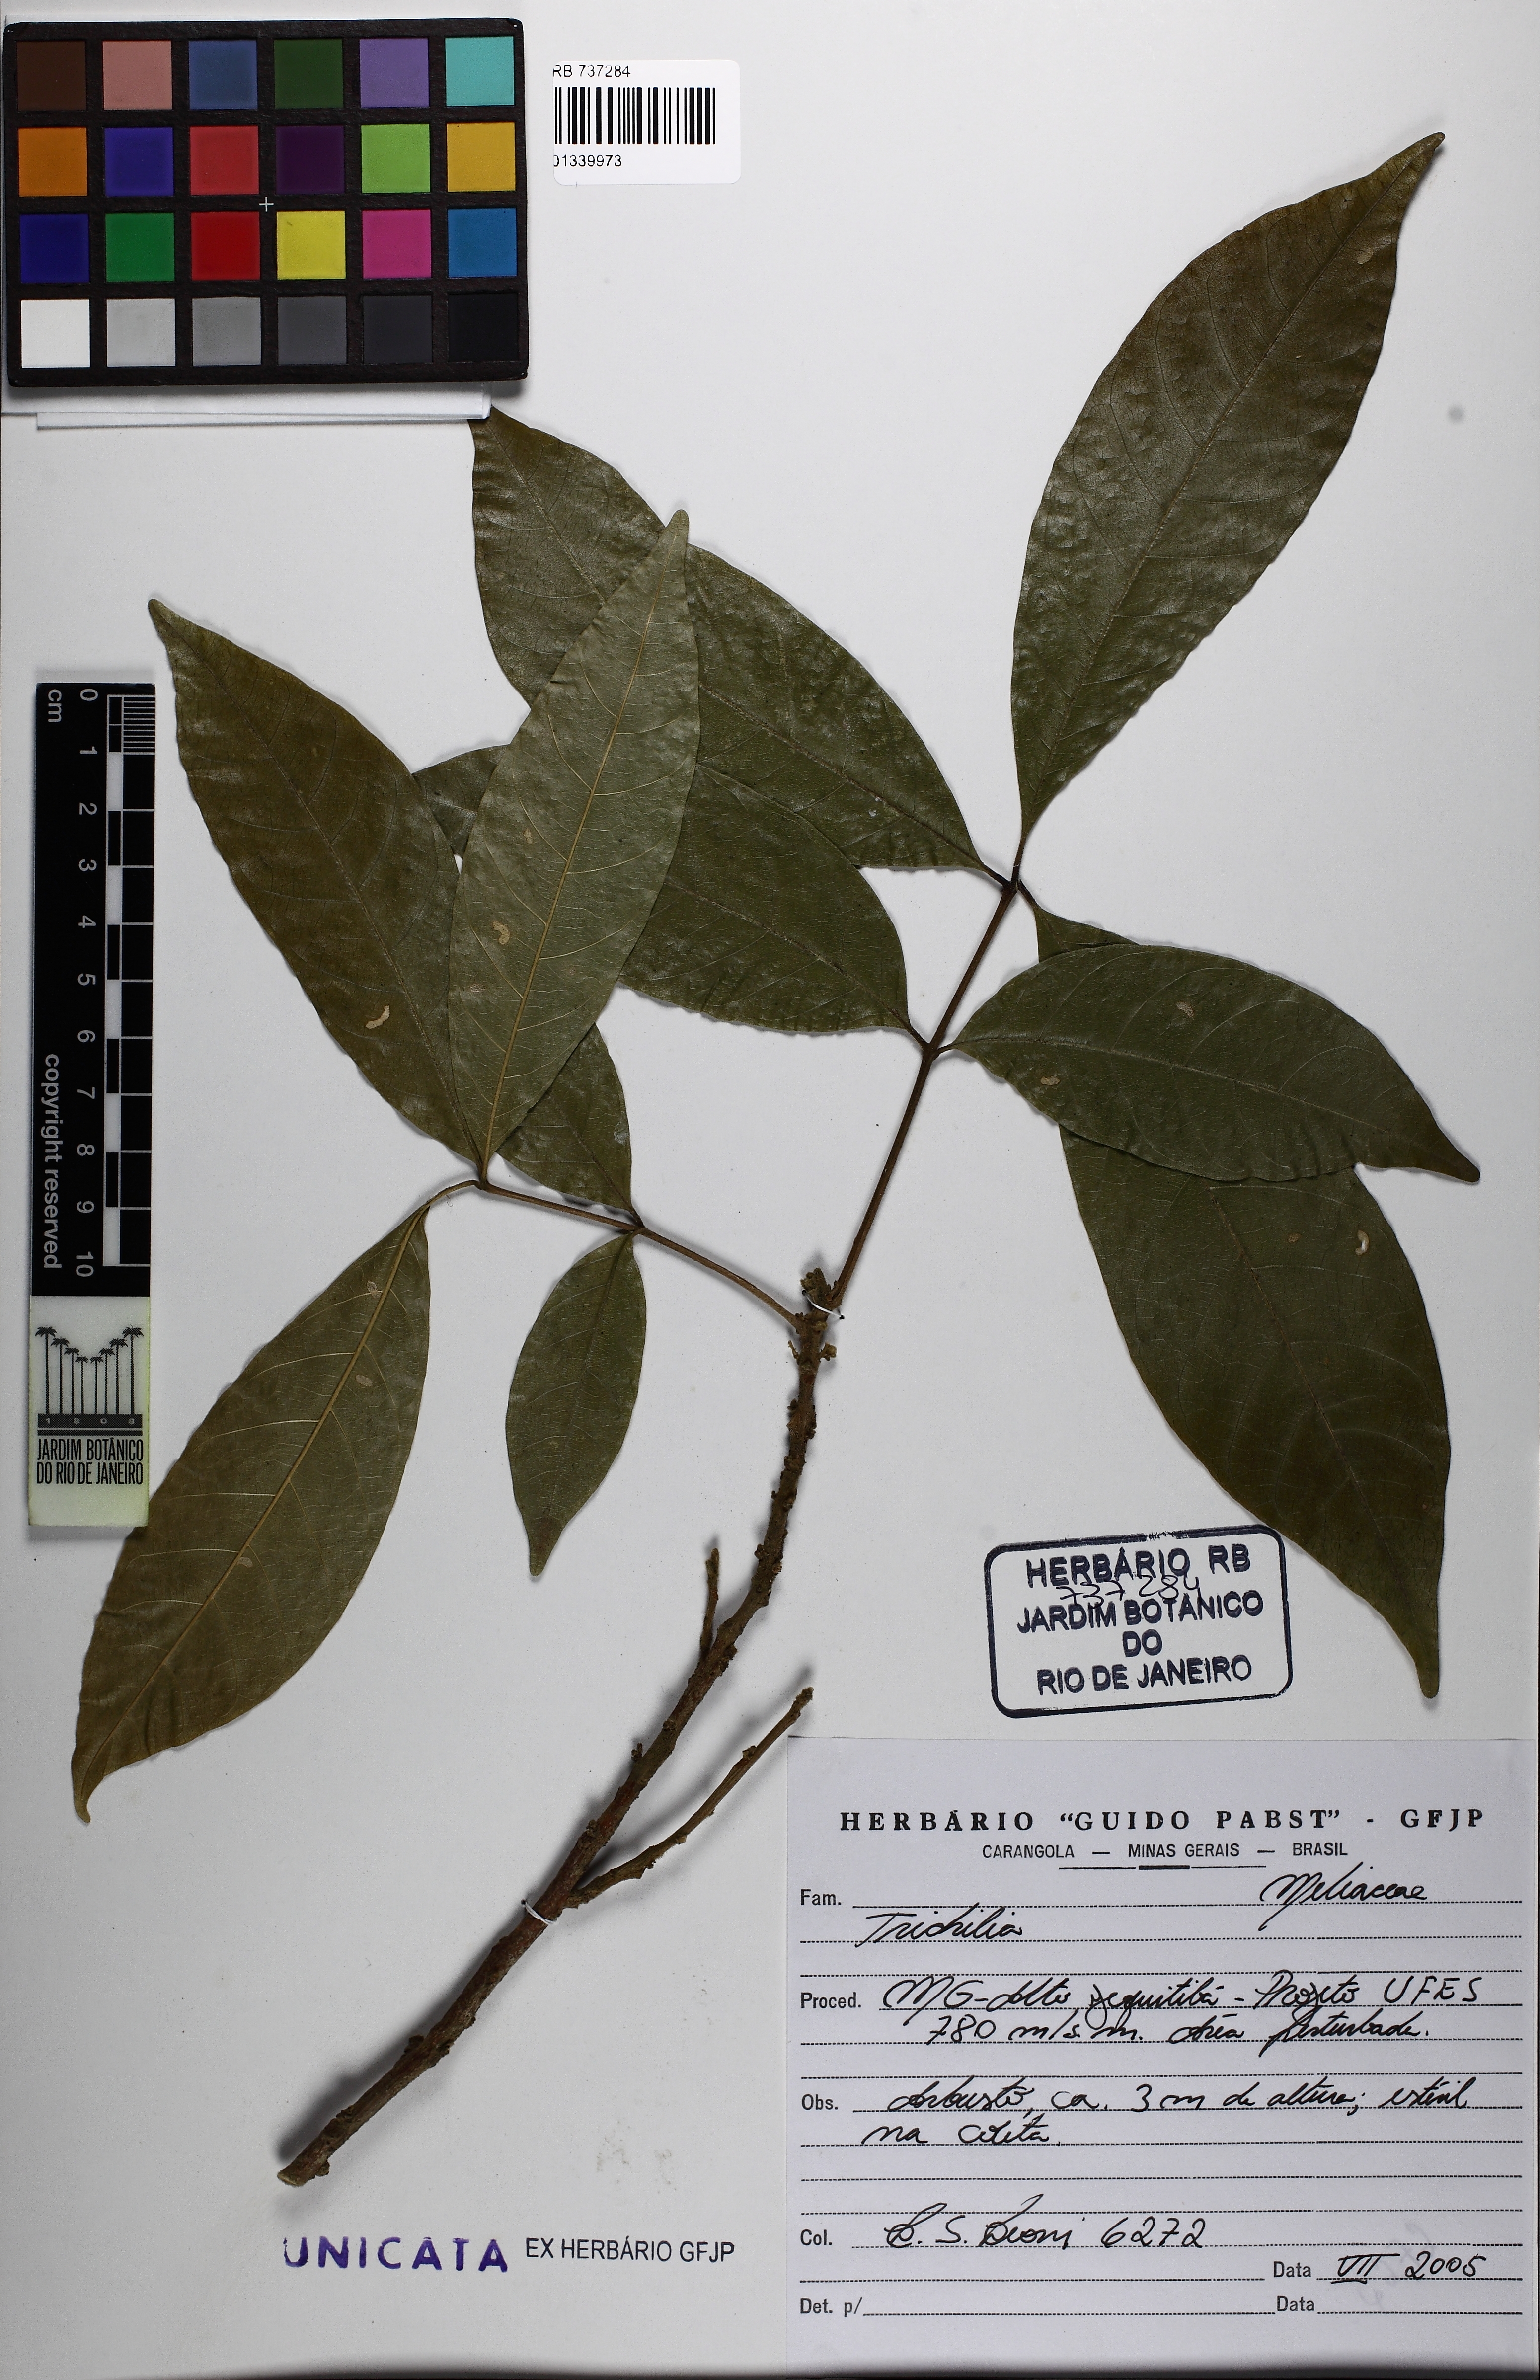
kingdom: Plantae
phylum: Tracheophyta
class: Magnoliopsida
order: Sapindales
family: Meliaceae
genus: Trichilia
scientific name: Trichilia
